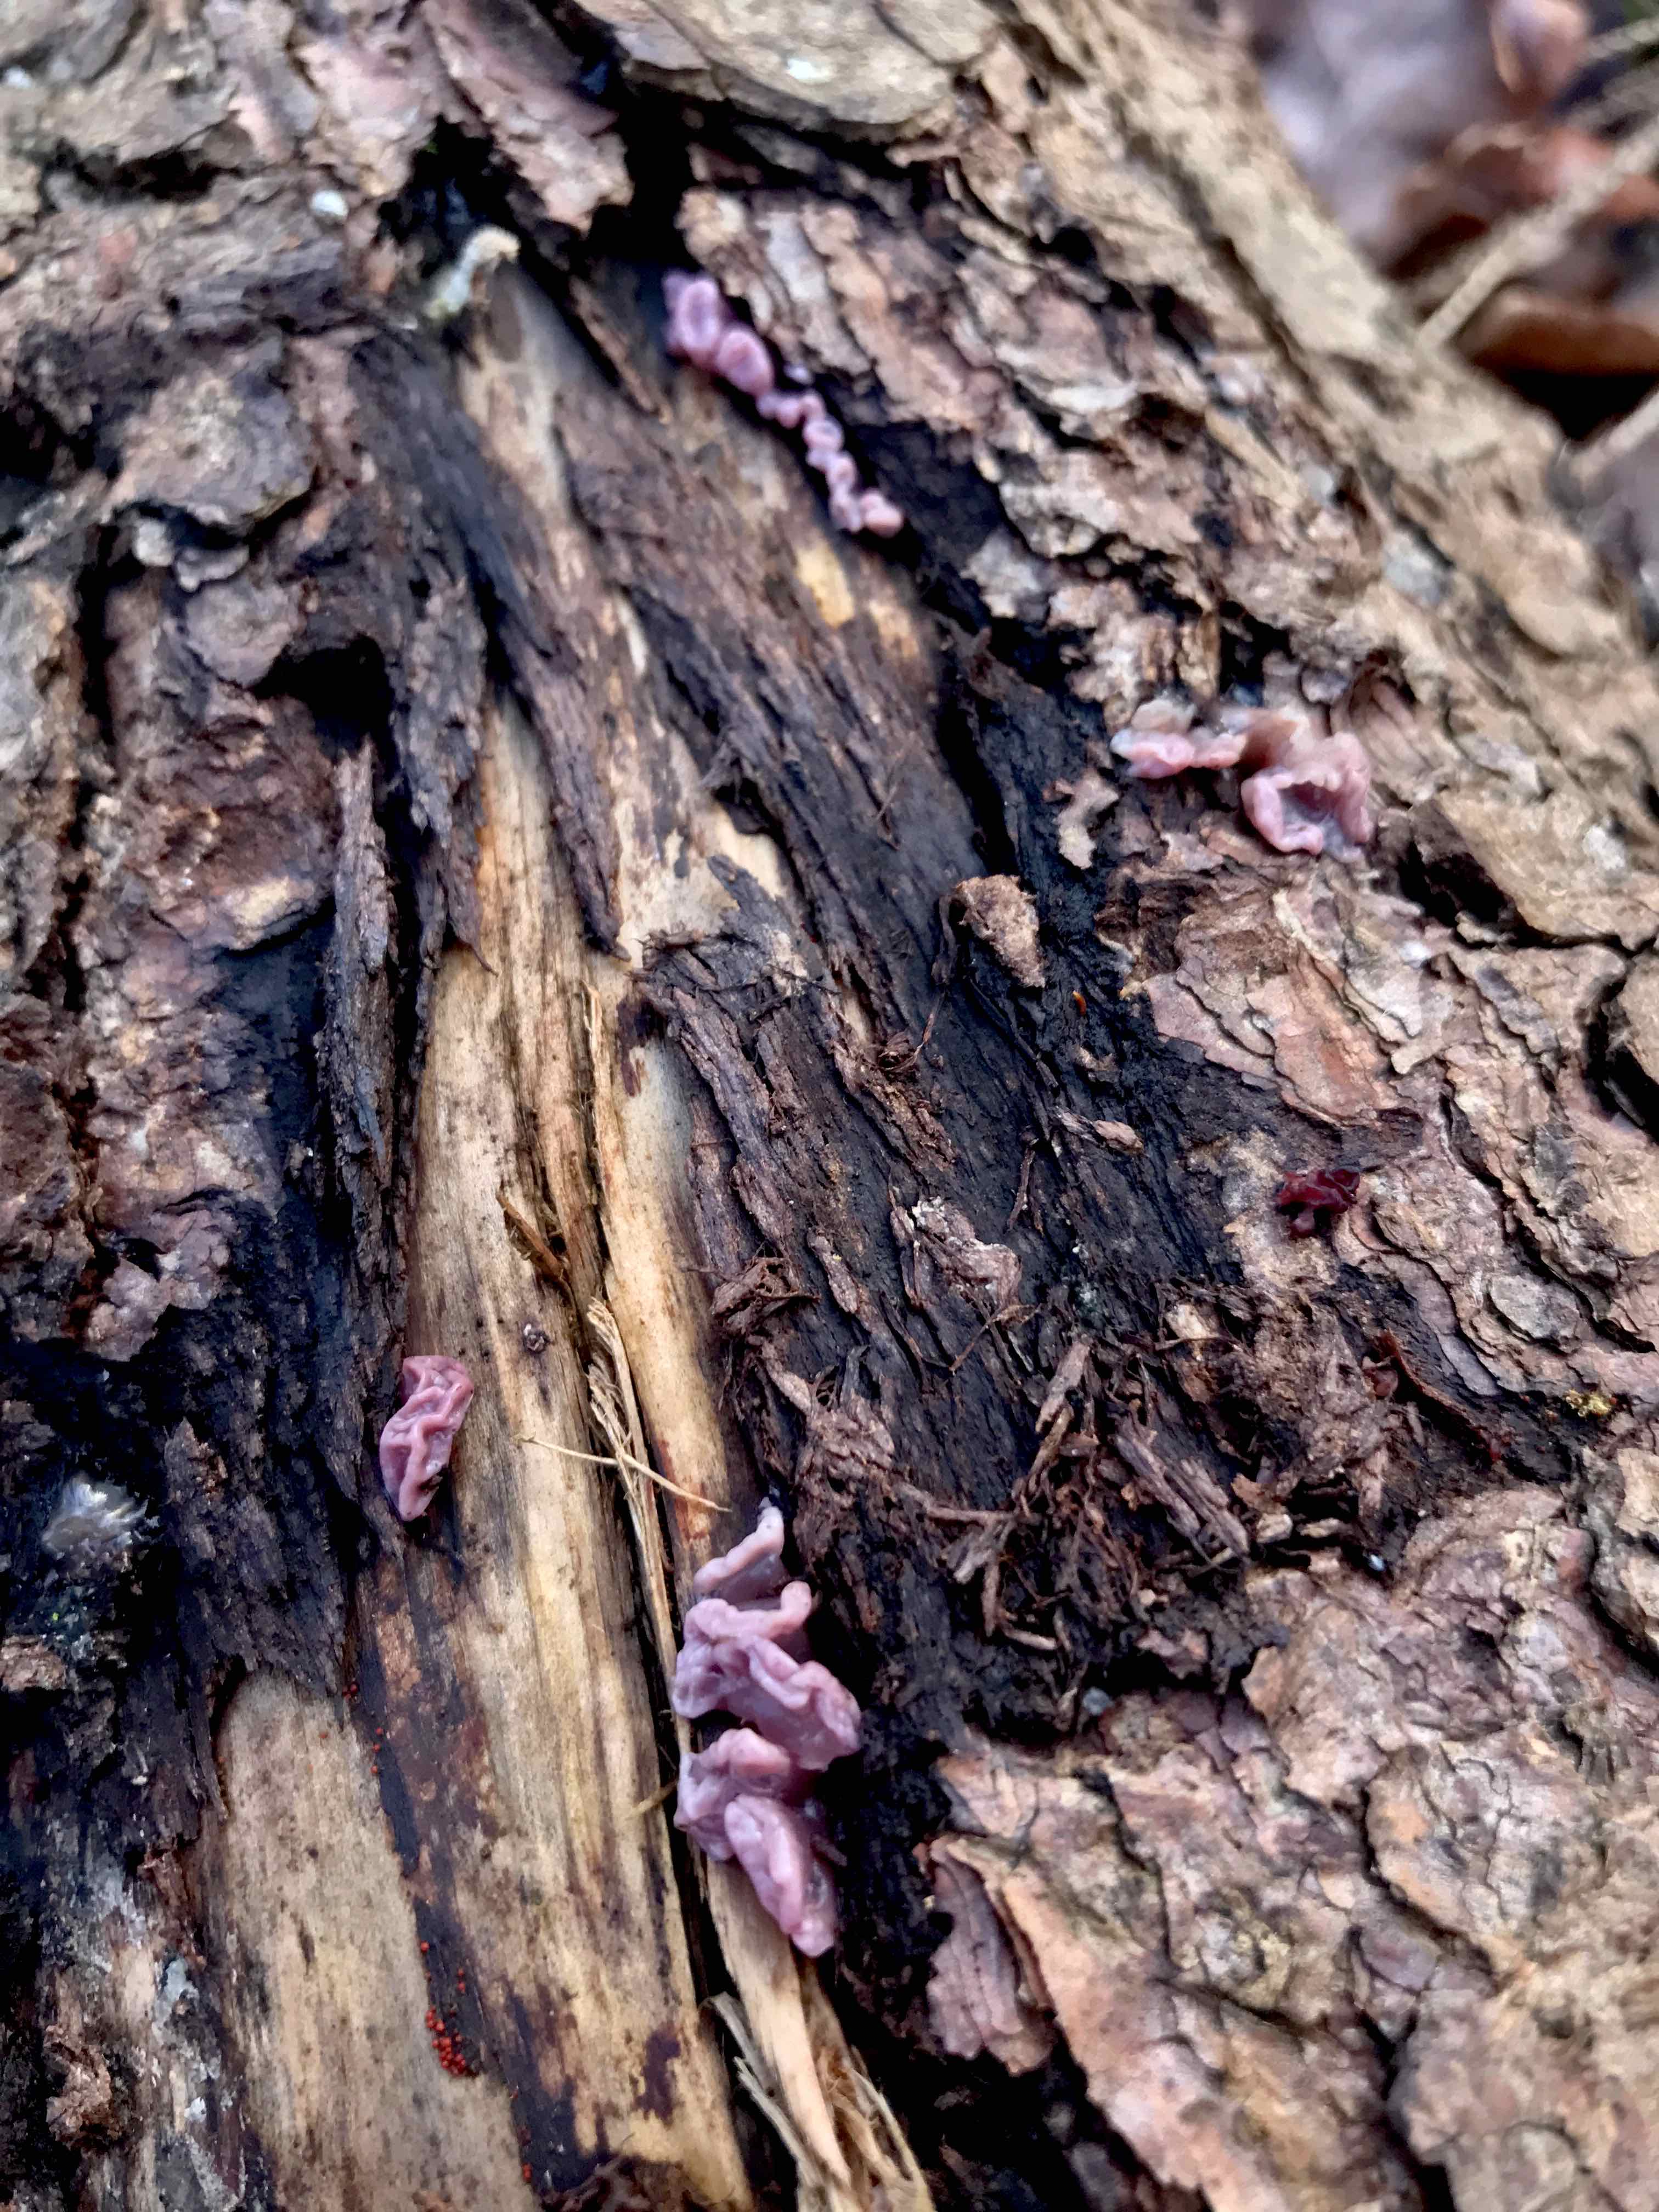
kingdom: Fungi
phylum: Ascomycota
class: Leotiomycetes
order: Helotiales
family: Gelatinodiscaceae
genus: Ascocoryne
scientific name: Ascocoryne sarcoides
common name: rødlilla sejskive
